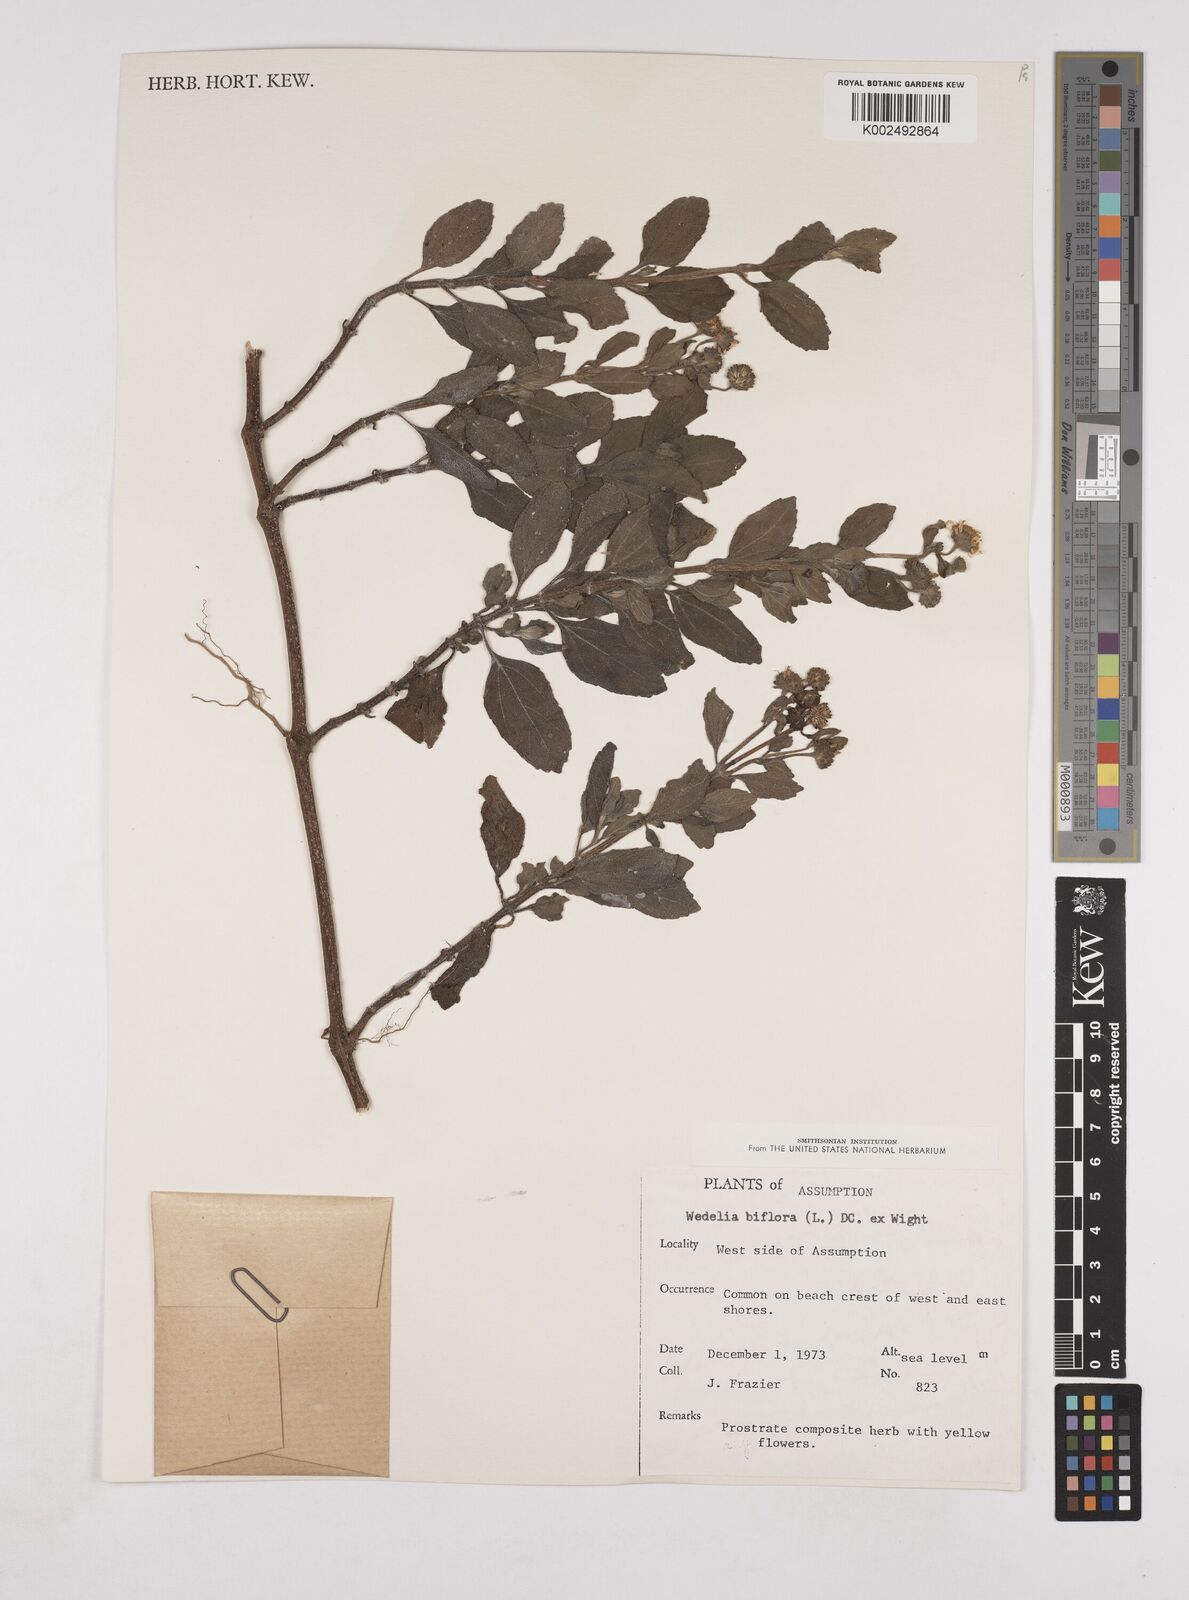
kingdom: Plantae
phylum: Tracheophyta
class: Magnoliopsida
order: Asterales
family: Asteraceae
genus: Wollastonia
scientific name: Wollastonia biflora
